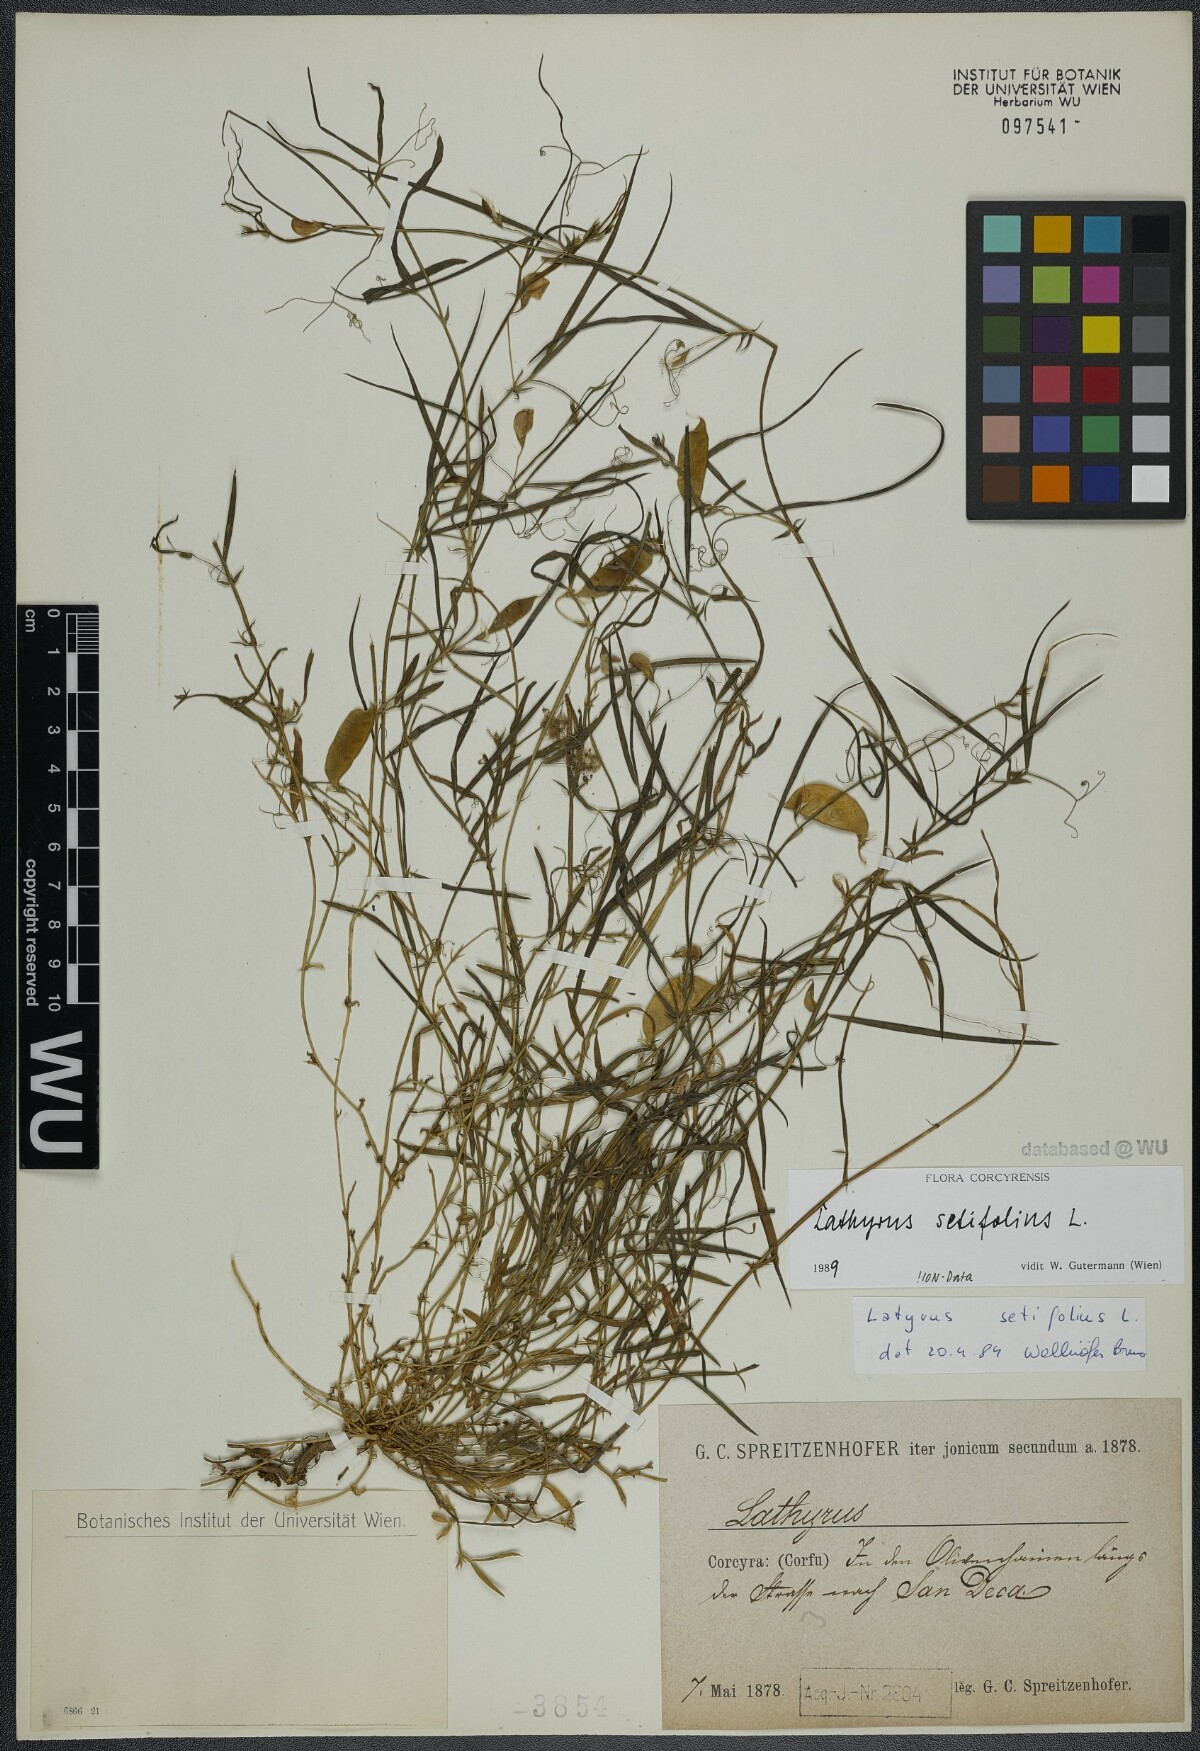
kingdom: Plantae
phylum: Tracheophyta
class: Magnoliopsida
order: Fabales
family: Fabaceae
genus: Lathyrus
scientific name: Lathyrus setifolius
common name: Brown vetchling
